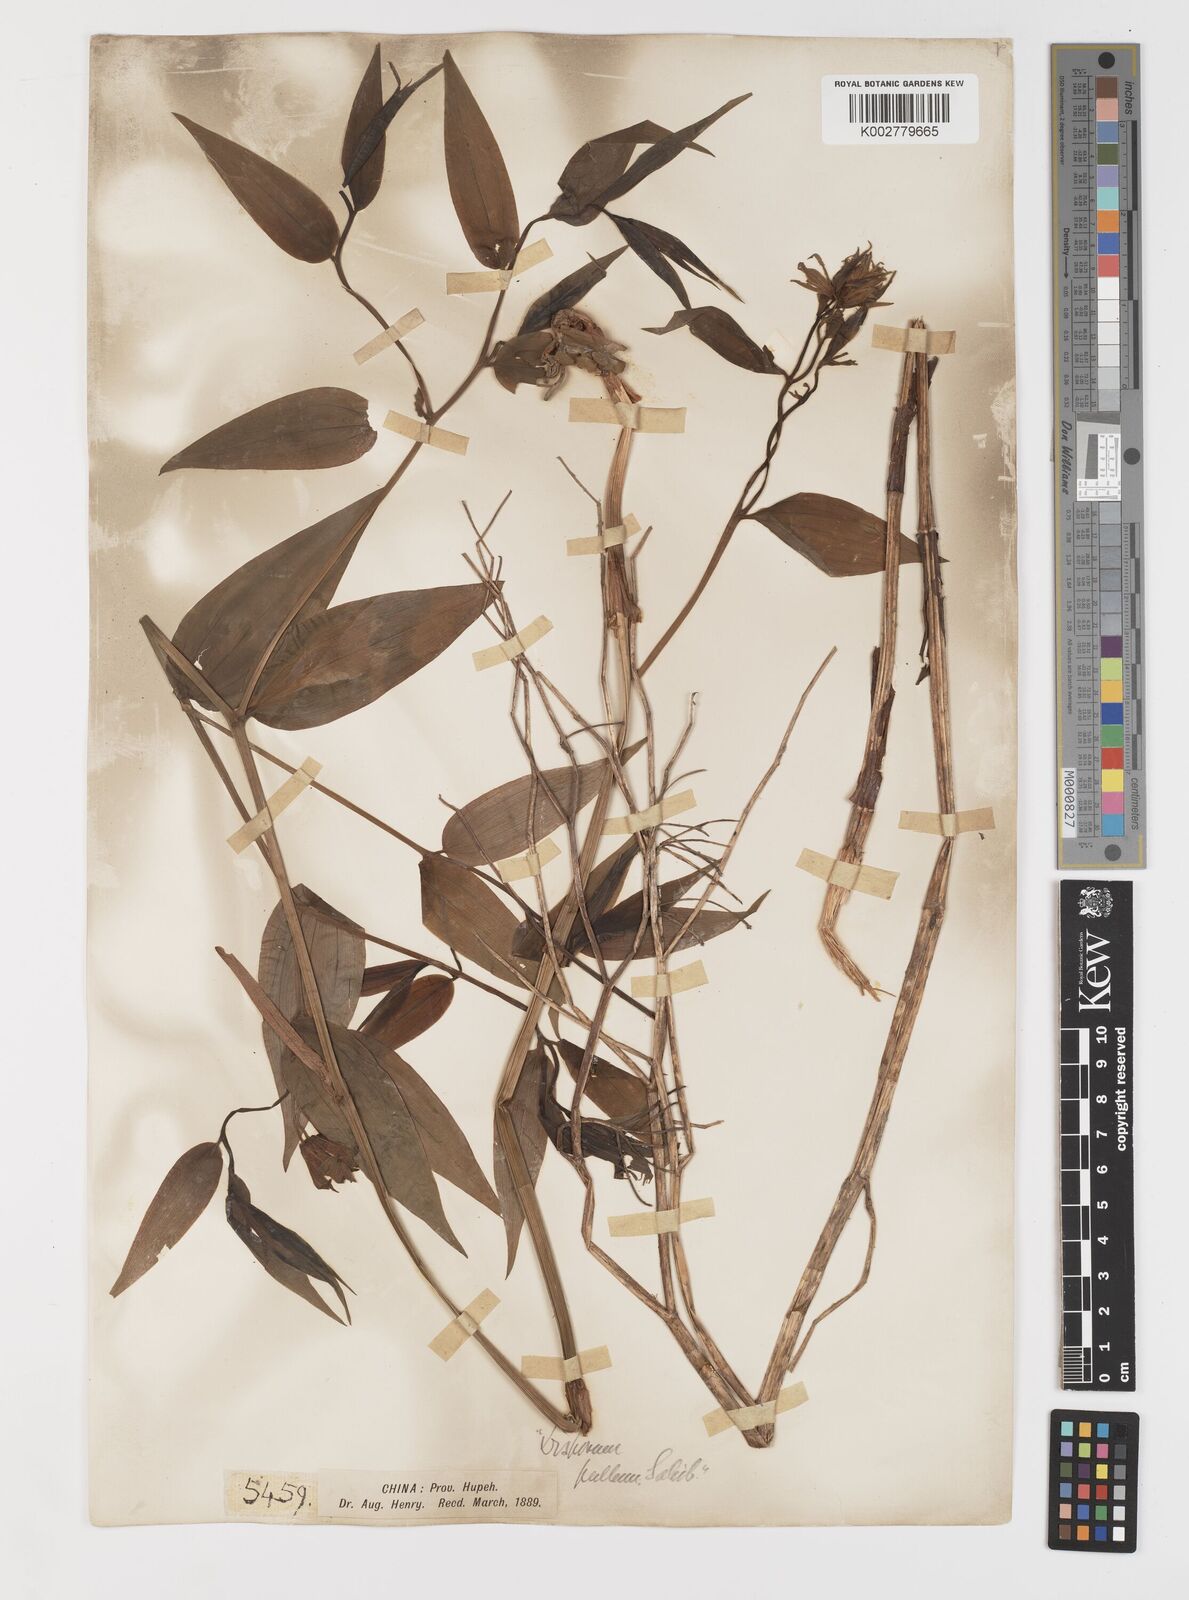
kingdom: Plantae
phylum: Tracheophyta
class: Liliopsida
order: Liliales
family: Colchicaceae
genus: Disporum
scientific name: Disporum cantoniense
